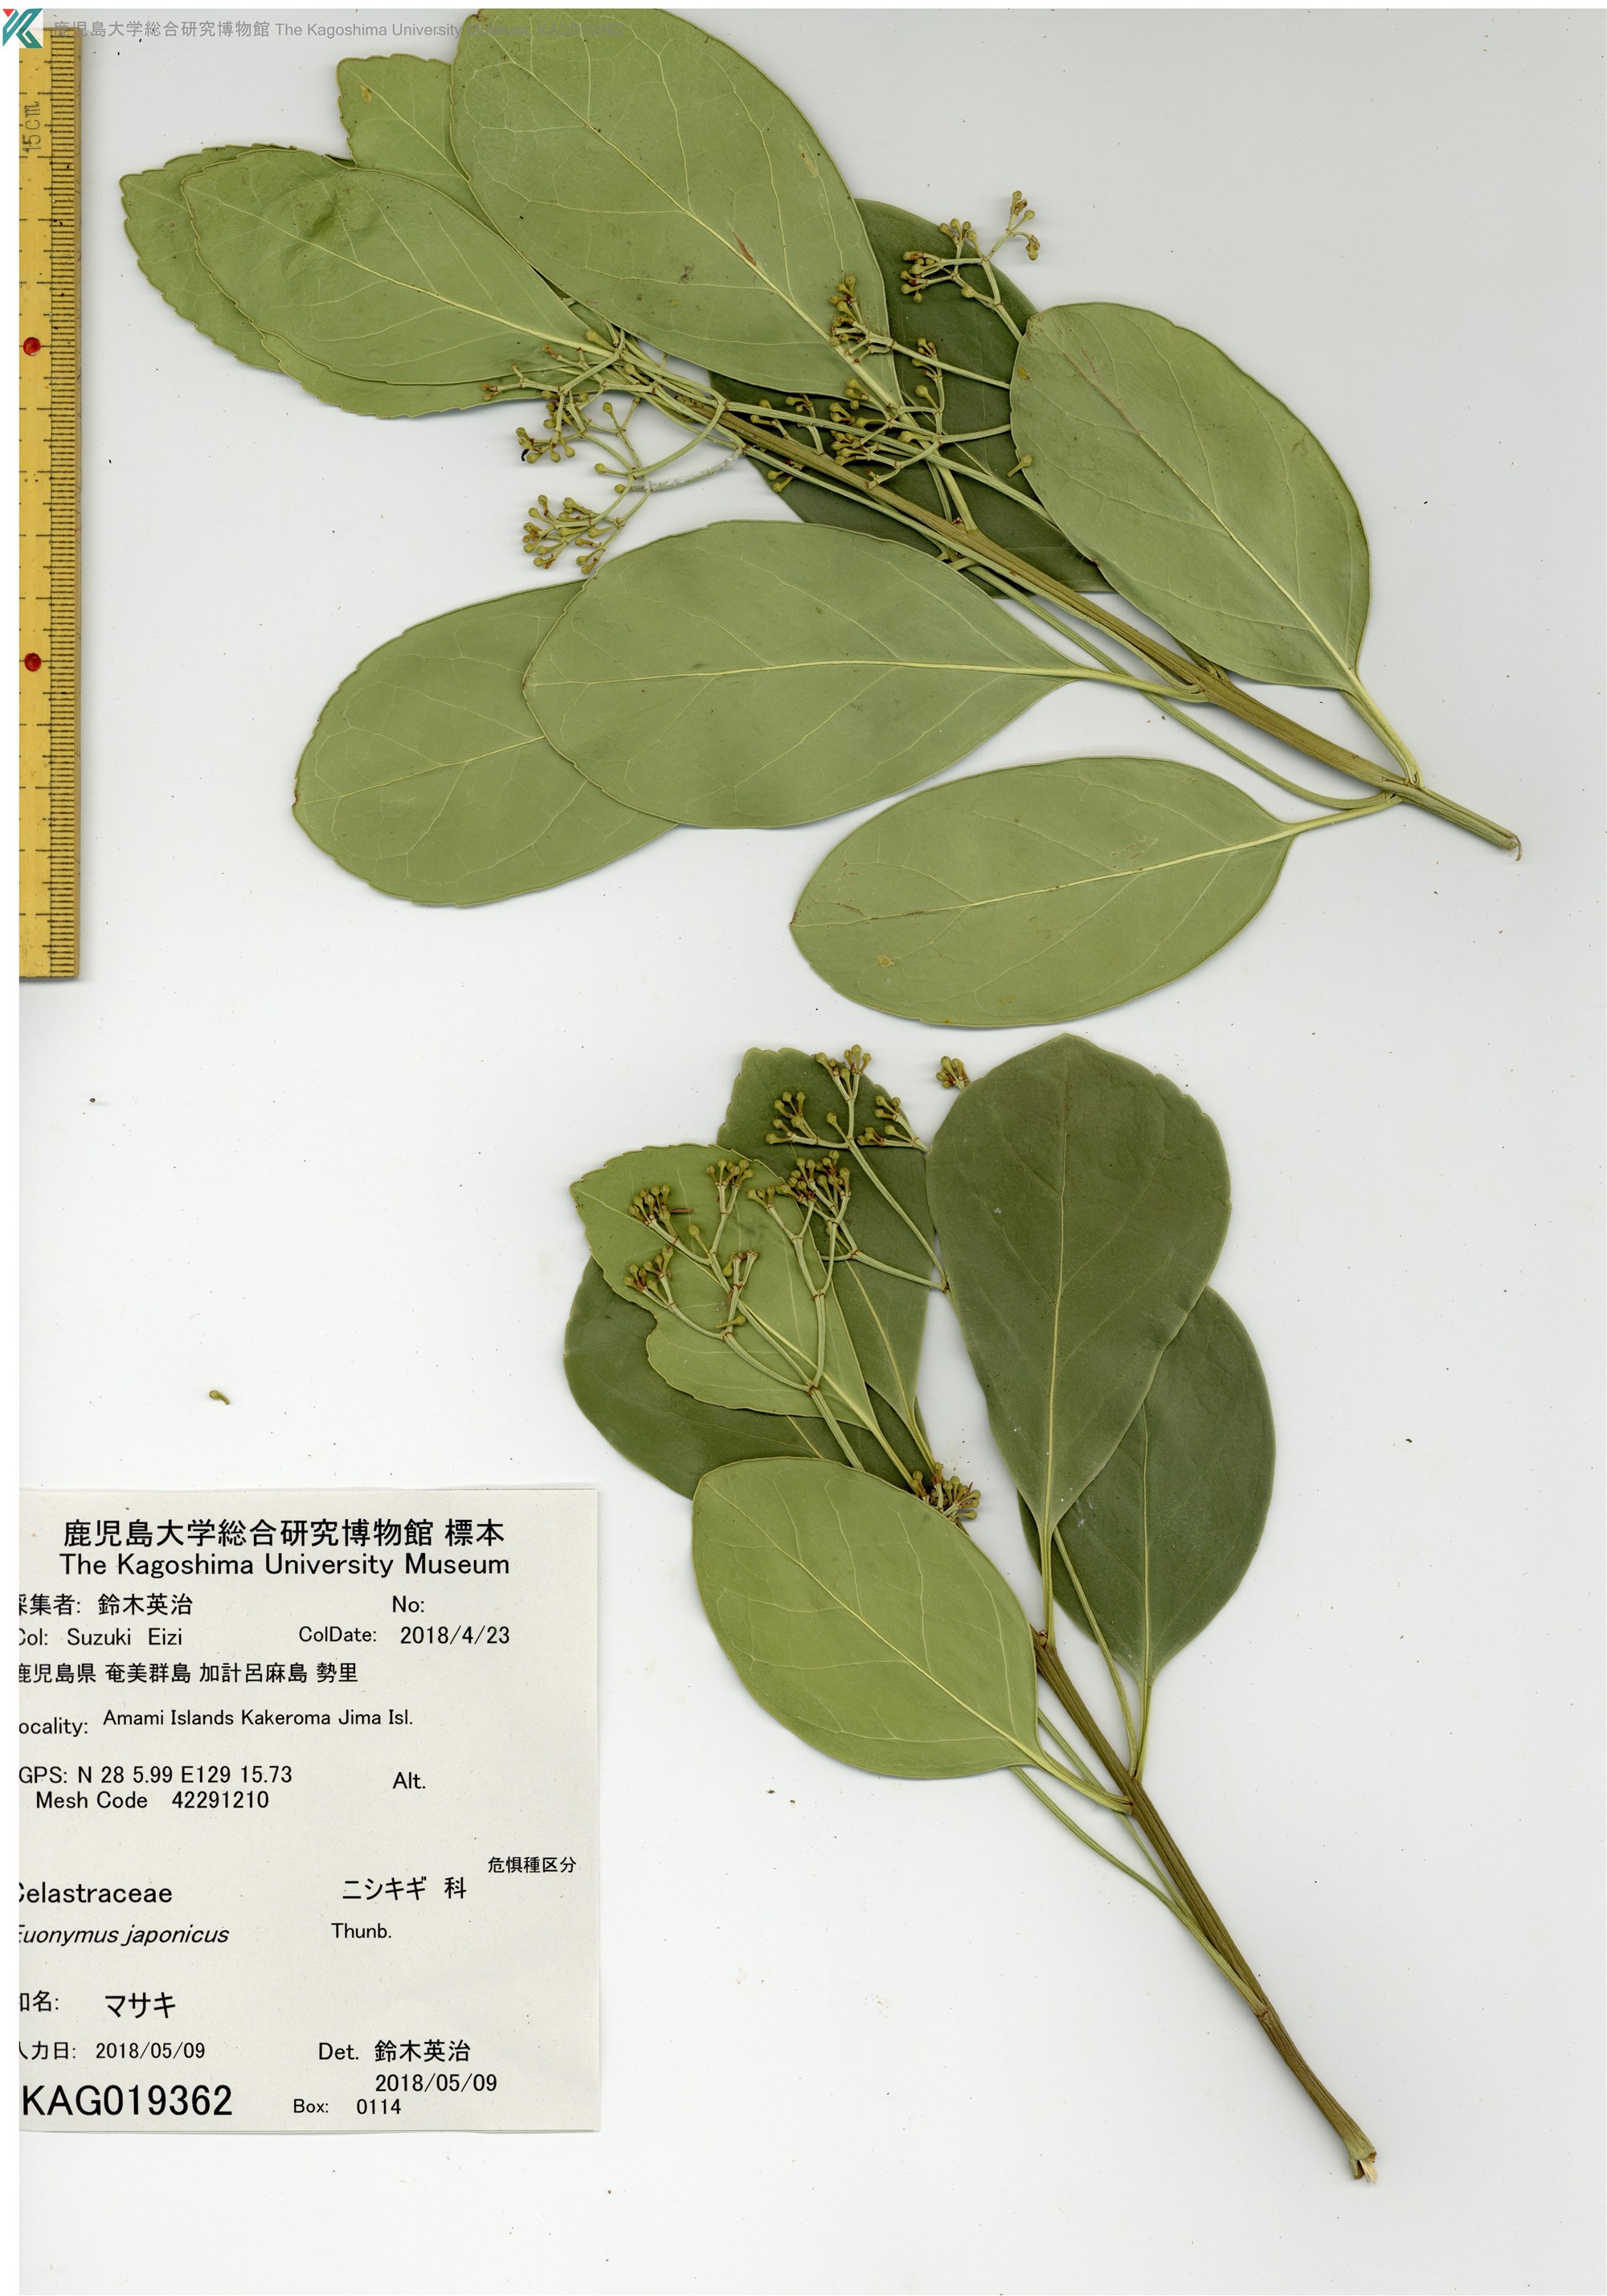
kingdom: Plantae
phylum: Tracheophyta
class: Magnoliopsida
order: Celastrales
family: Celastraceae
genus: Euonymus
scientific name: Euonymus japonicus
